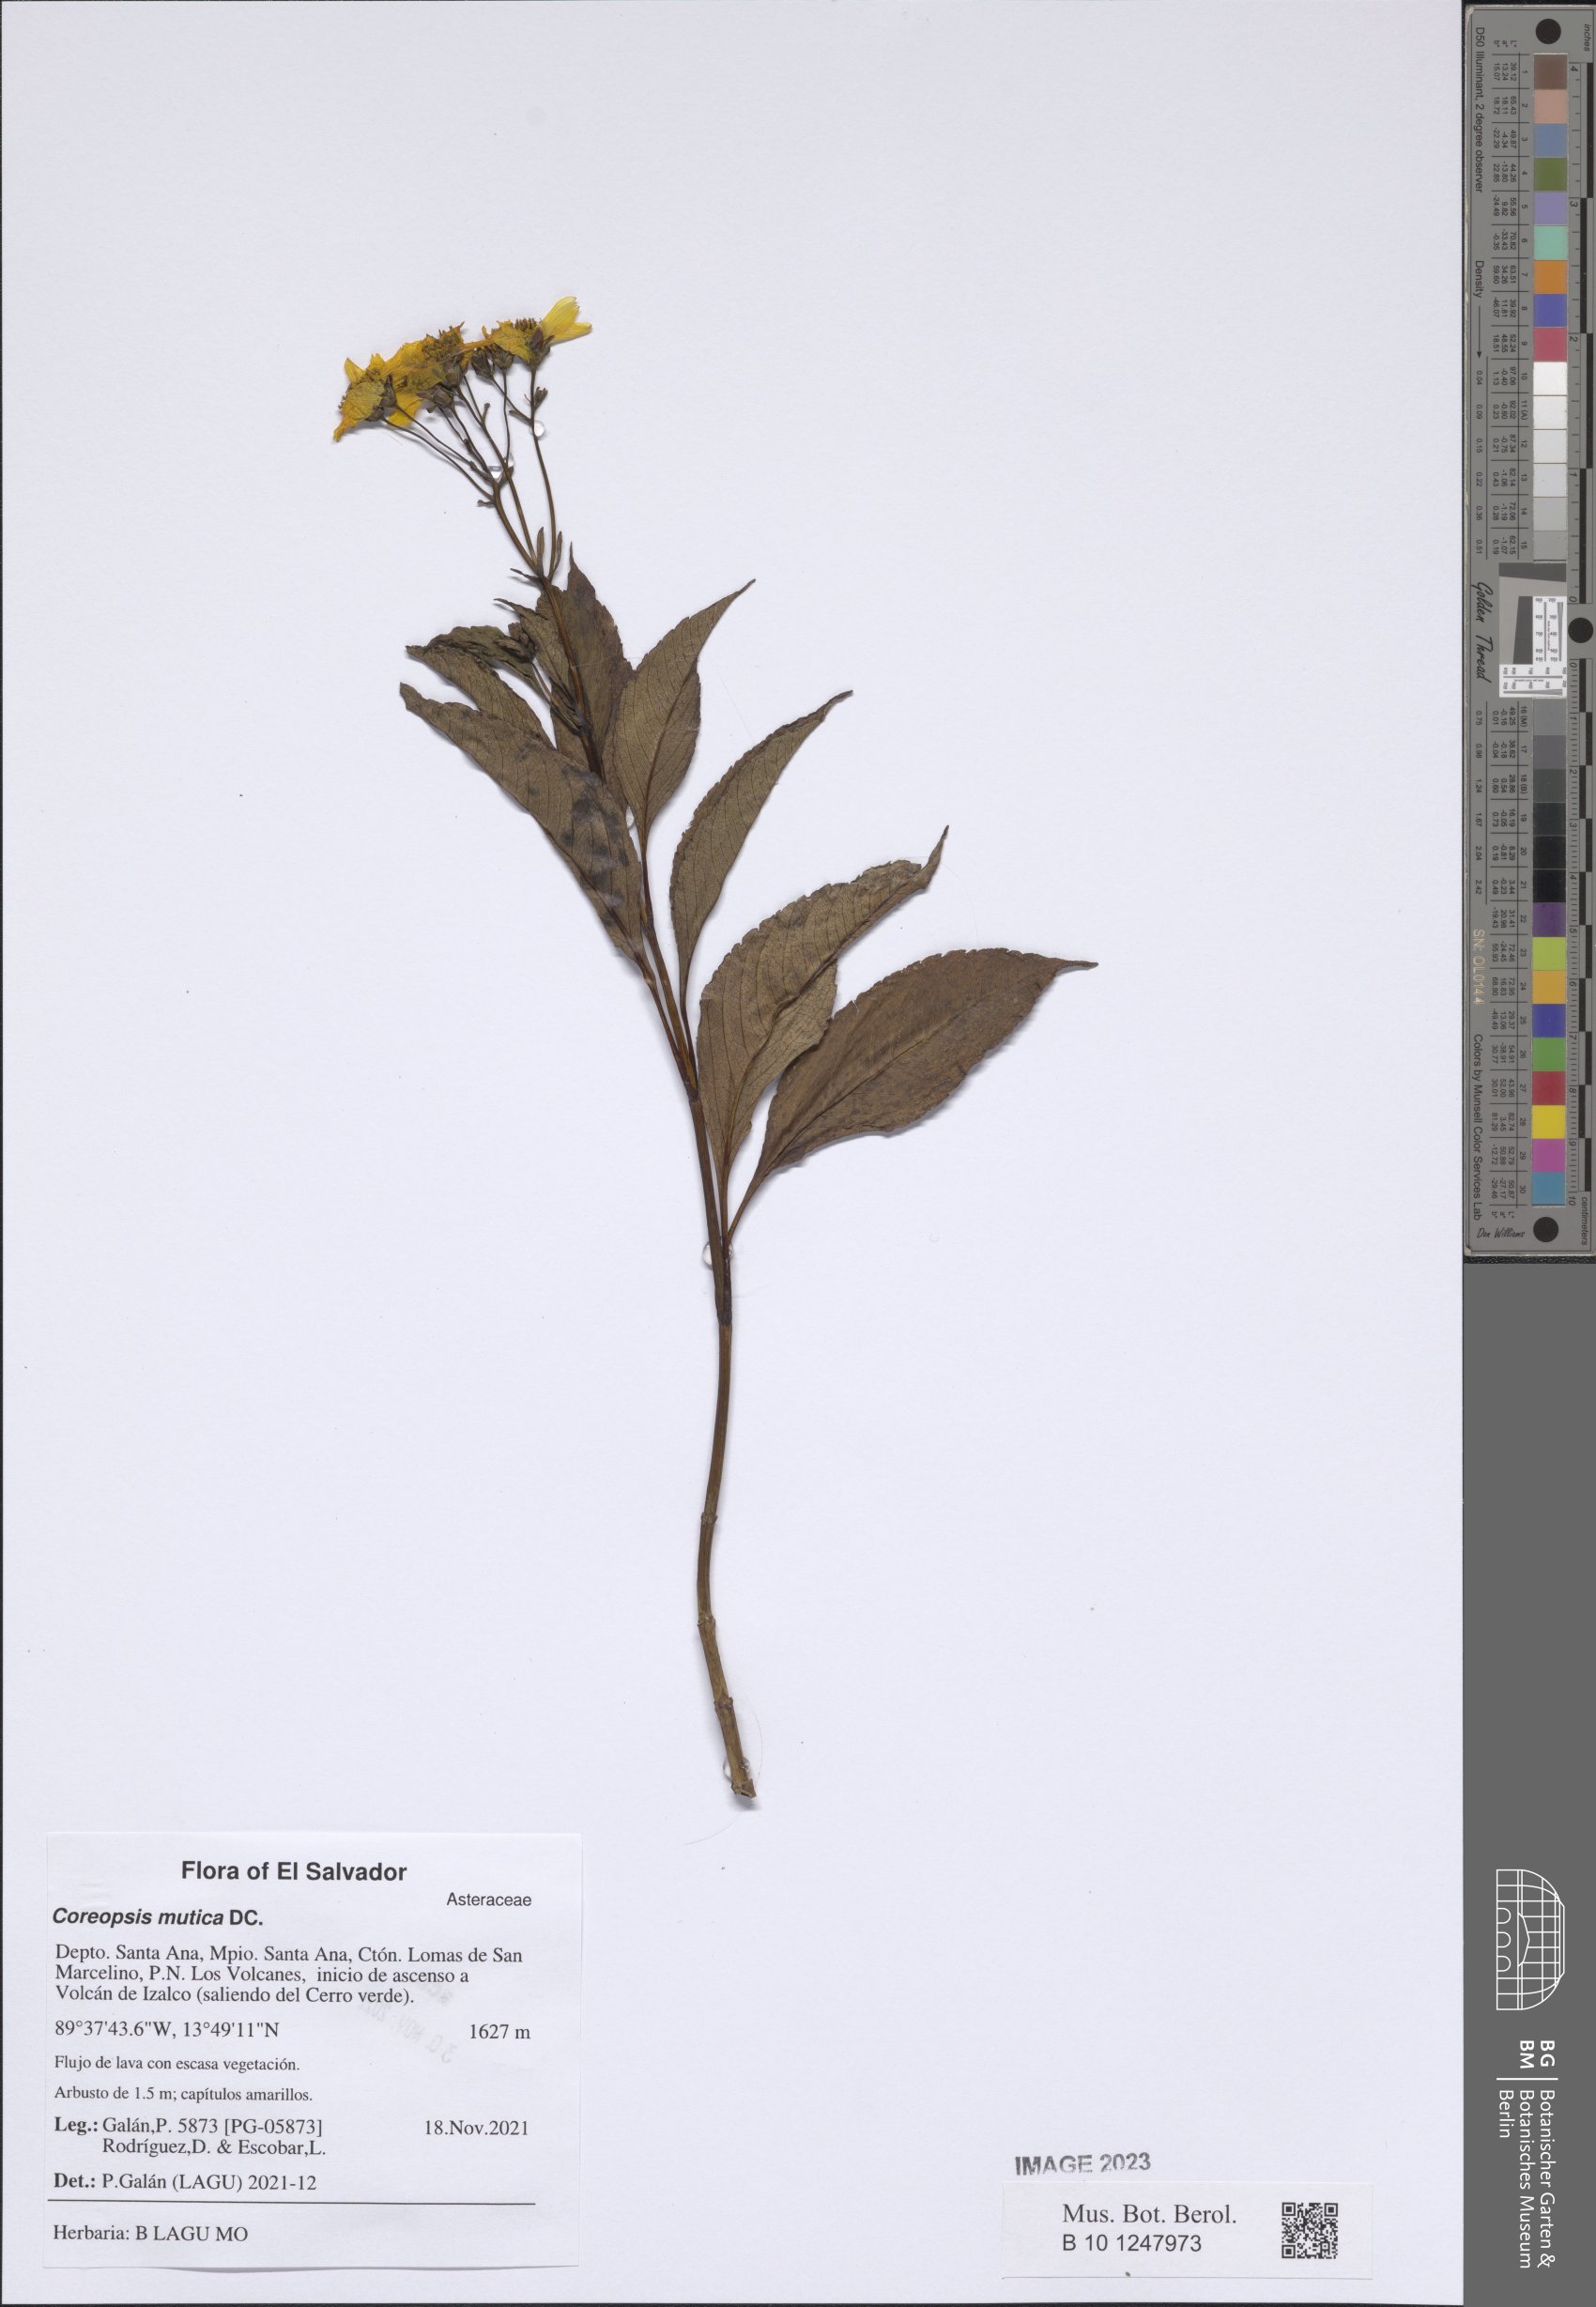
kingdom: Plantae
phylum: Tracheophyta
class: Magnoliopsida
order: Asterales
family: Asteraceae
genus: Electranthera
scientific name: Electranthera mutica
